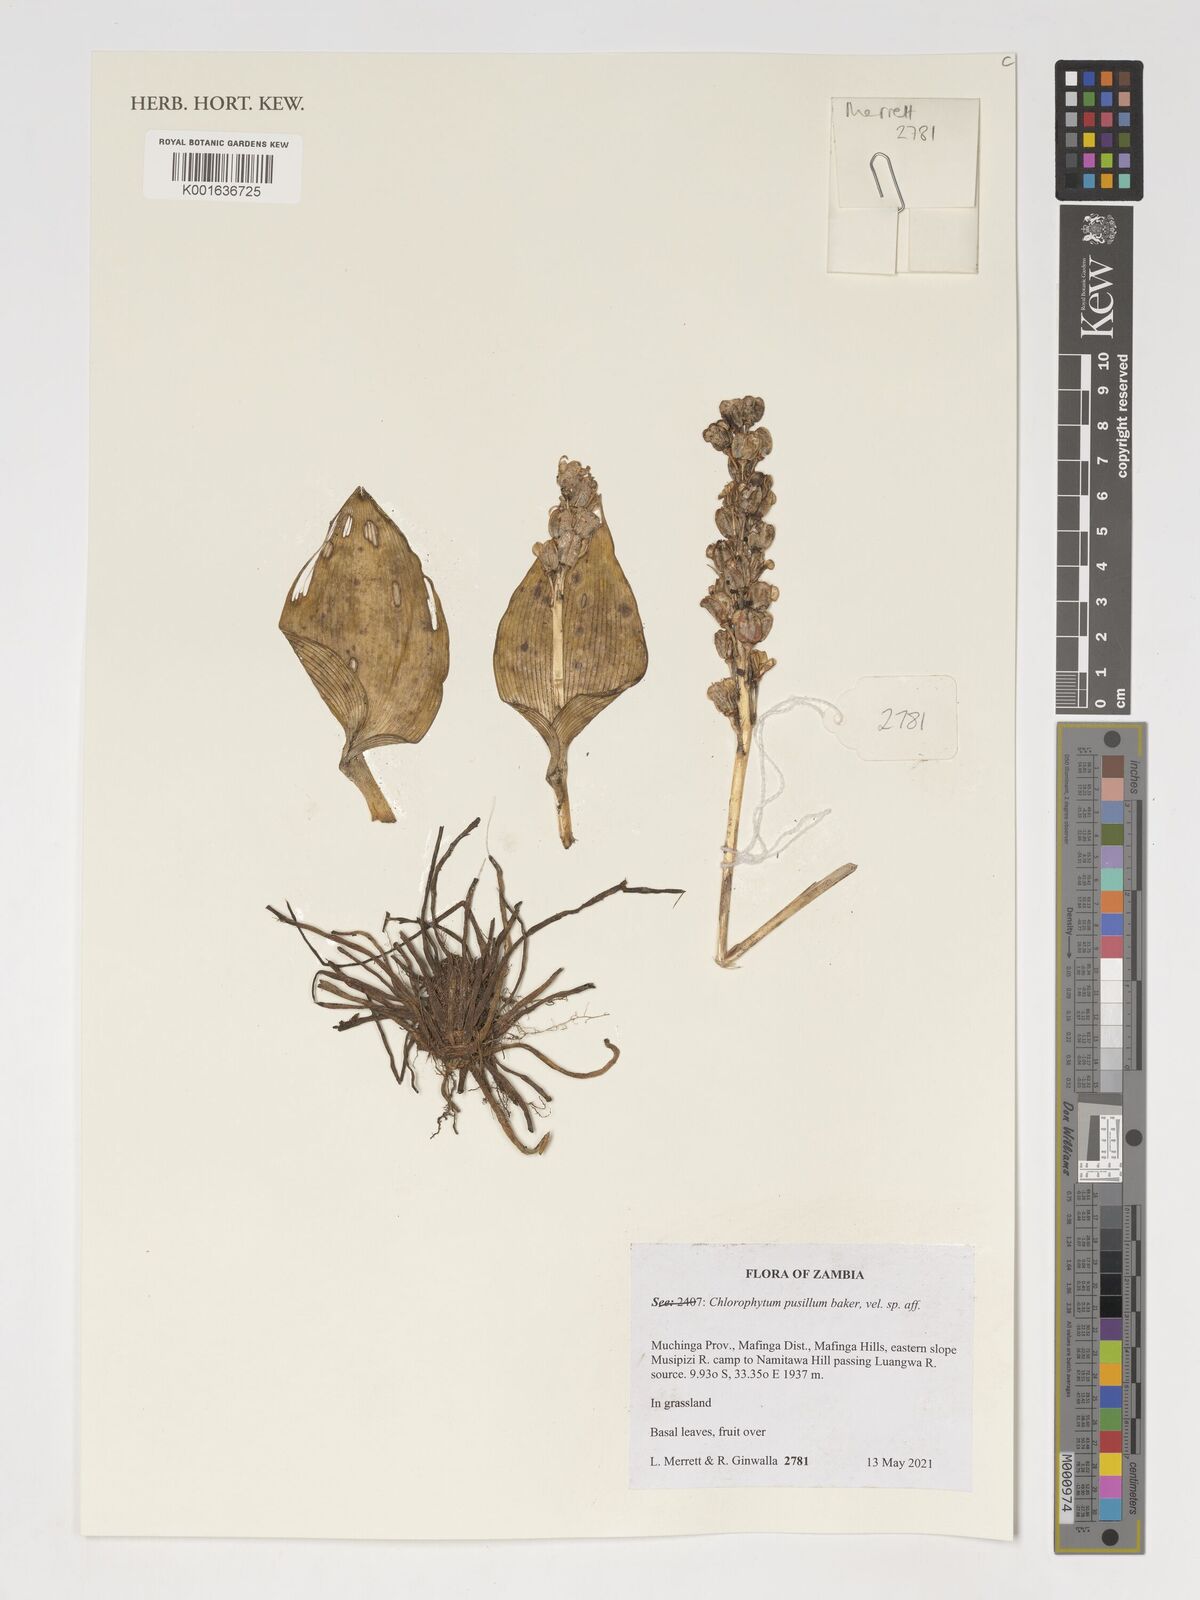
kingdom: Plantae
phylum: Tracheophyta
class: Liliopsida
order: Asparagales
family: Asparagaceae
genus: Chlorophytum
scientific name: Chlorophytum pusillum
